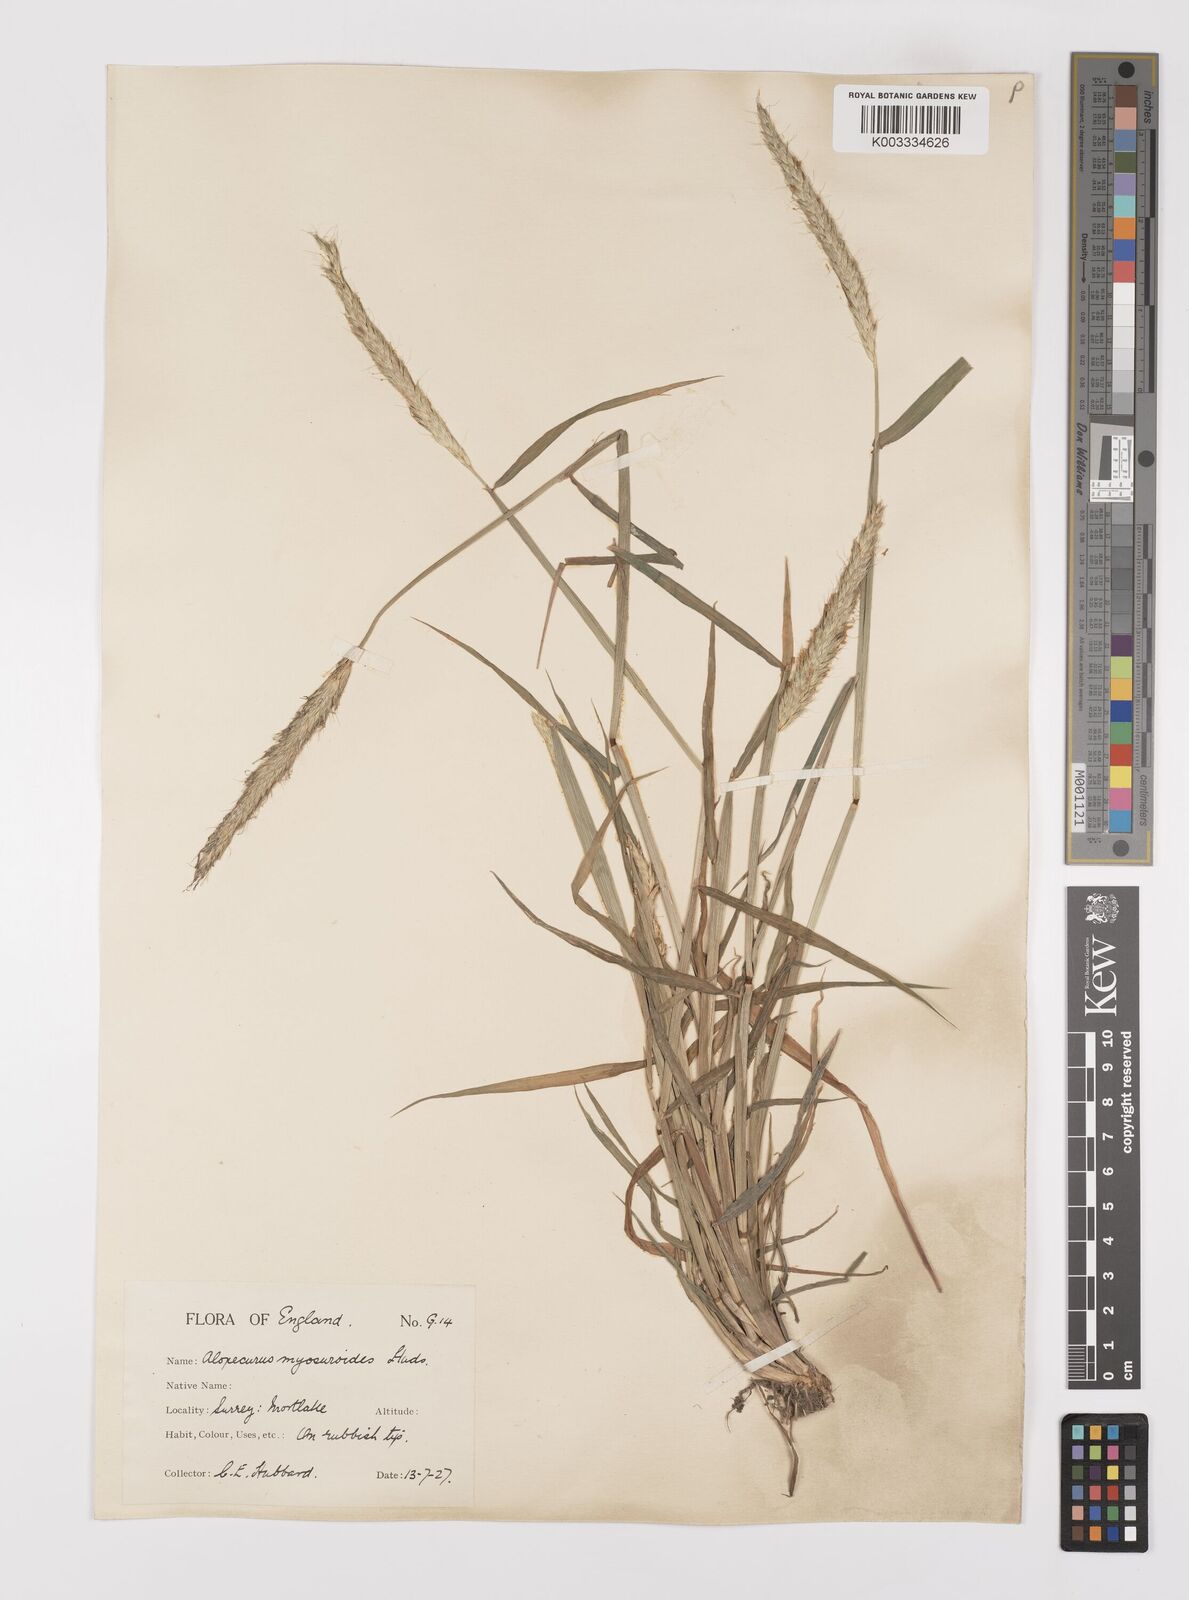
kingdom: Plantae
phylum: Tracheophyta
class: Liliopsida
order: Poales
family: Poaceae
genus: Alopecurus
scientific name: Alopecurus myosuroides
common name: Black-grass
